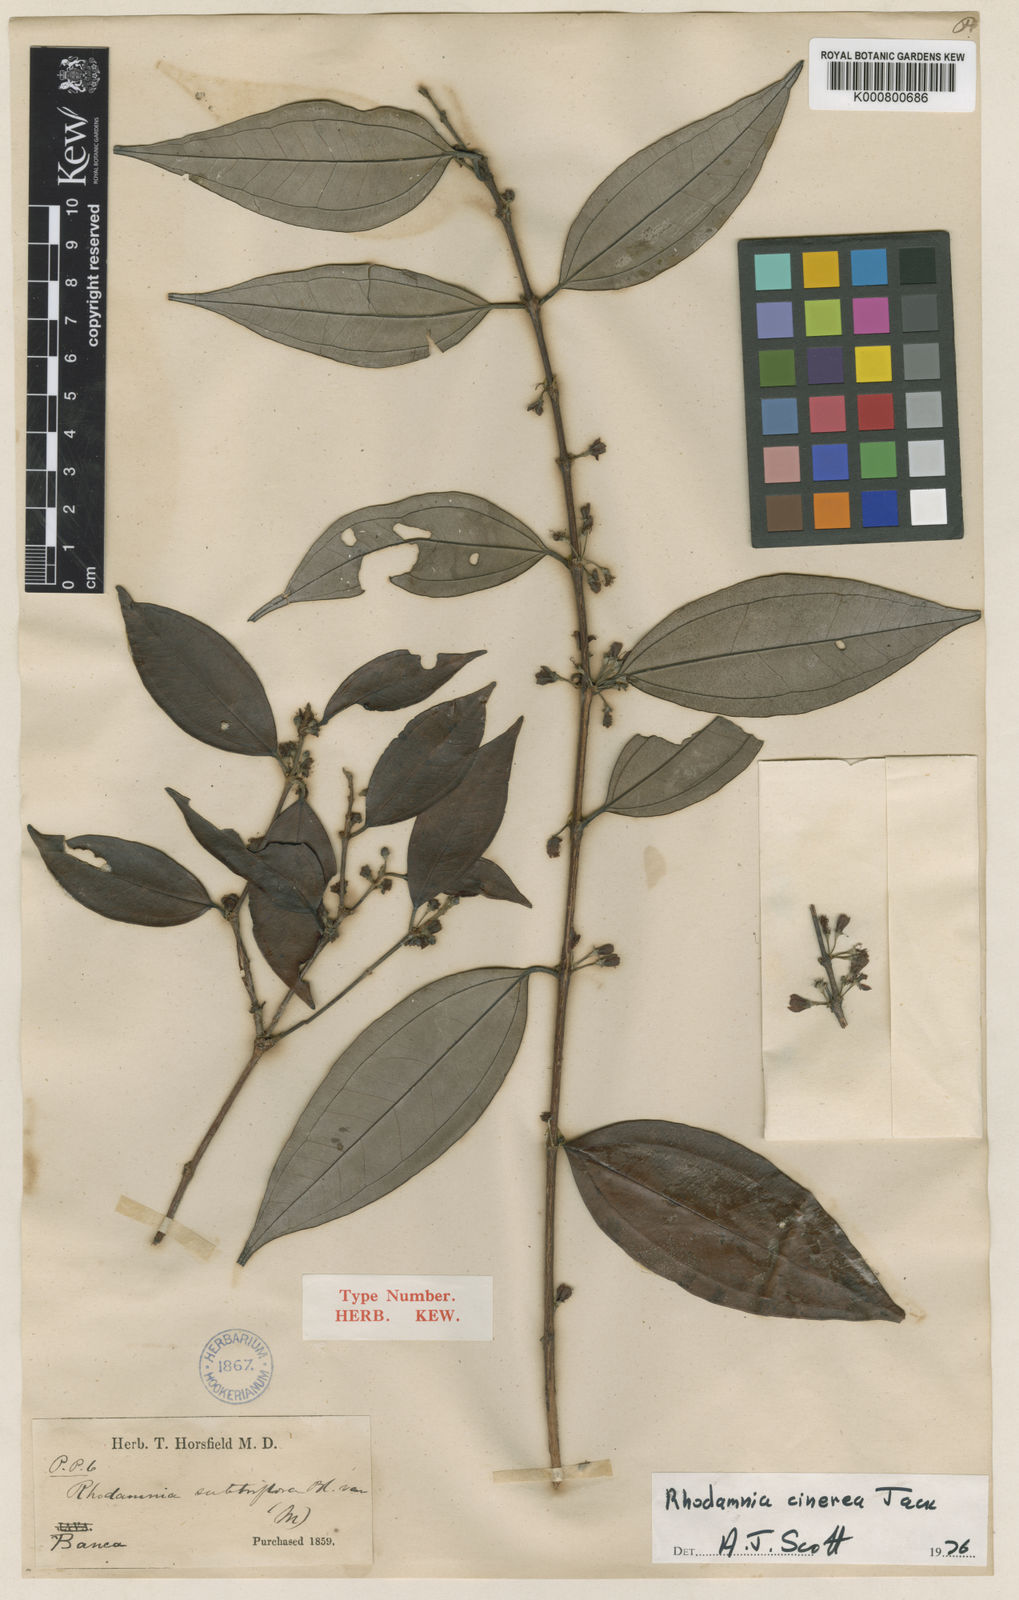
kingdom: Plantae
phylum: Tracheophyta
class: Magnoliopsida
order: Myrtales
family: Myrtaceae
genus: Rhodamnia
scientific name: Rhodamnia cinerea
